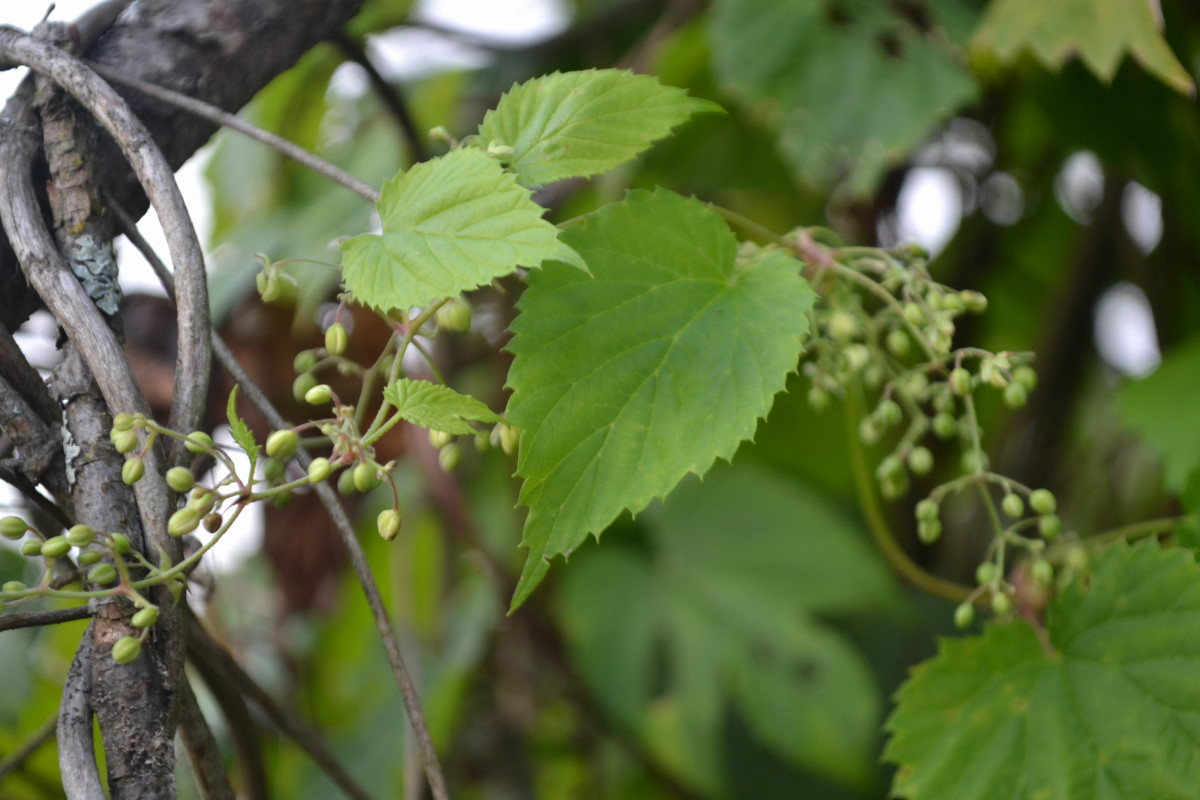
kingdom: Plantae
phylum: Tracheophyta
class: Magnoliopsida
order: Rosales
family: Cannabaceae
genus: Humulus
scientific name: Humulus lupulus
